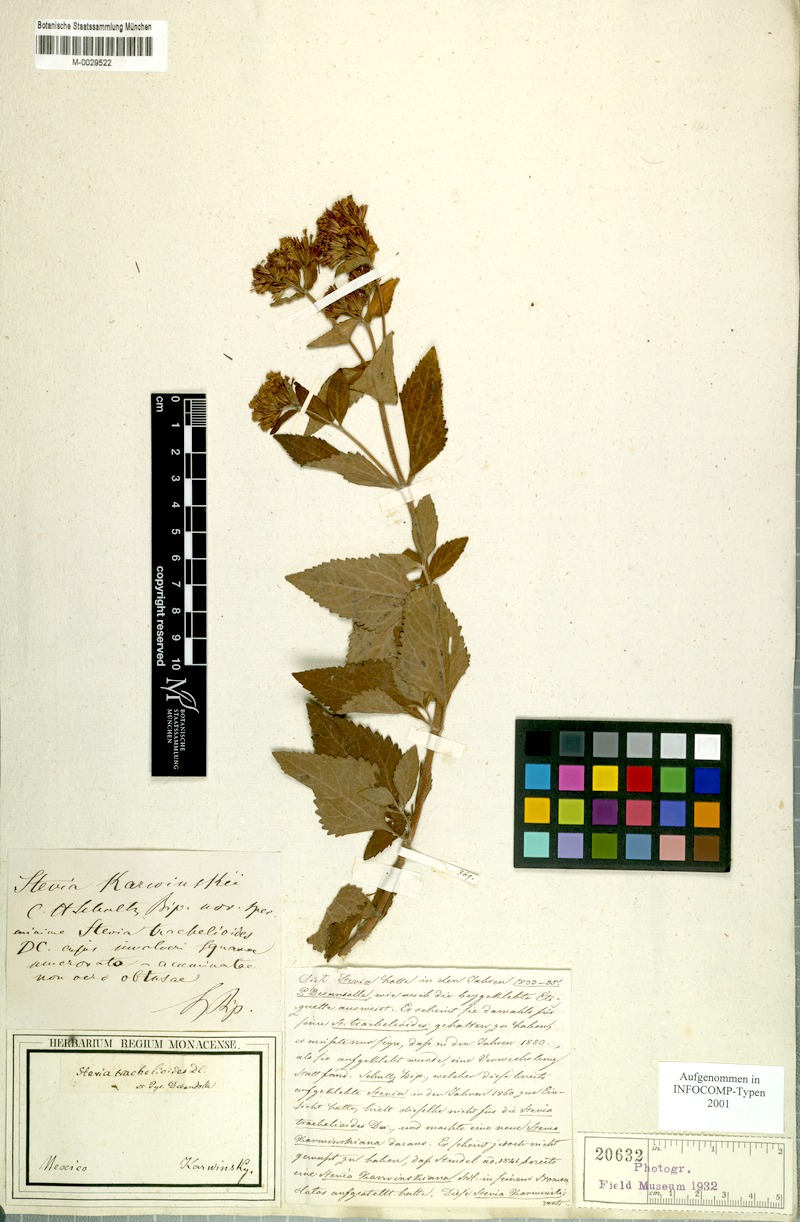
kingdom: Plantae
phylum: Tracheophyta
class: Magnoliopsida
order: Asterales
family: Asteraceae
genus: Stevia
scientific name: Stevia karwinskii
